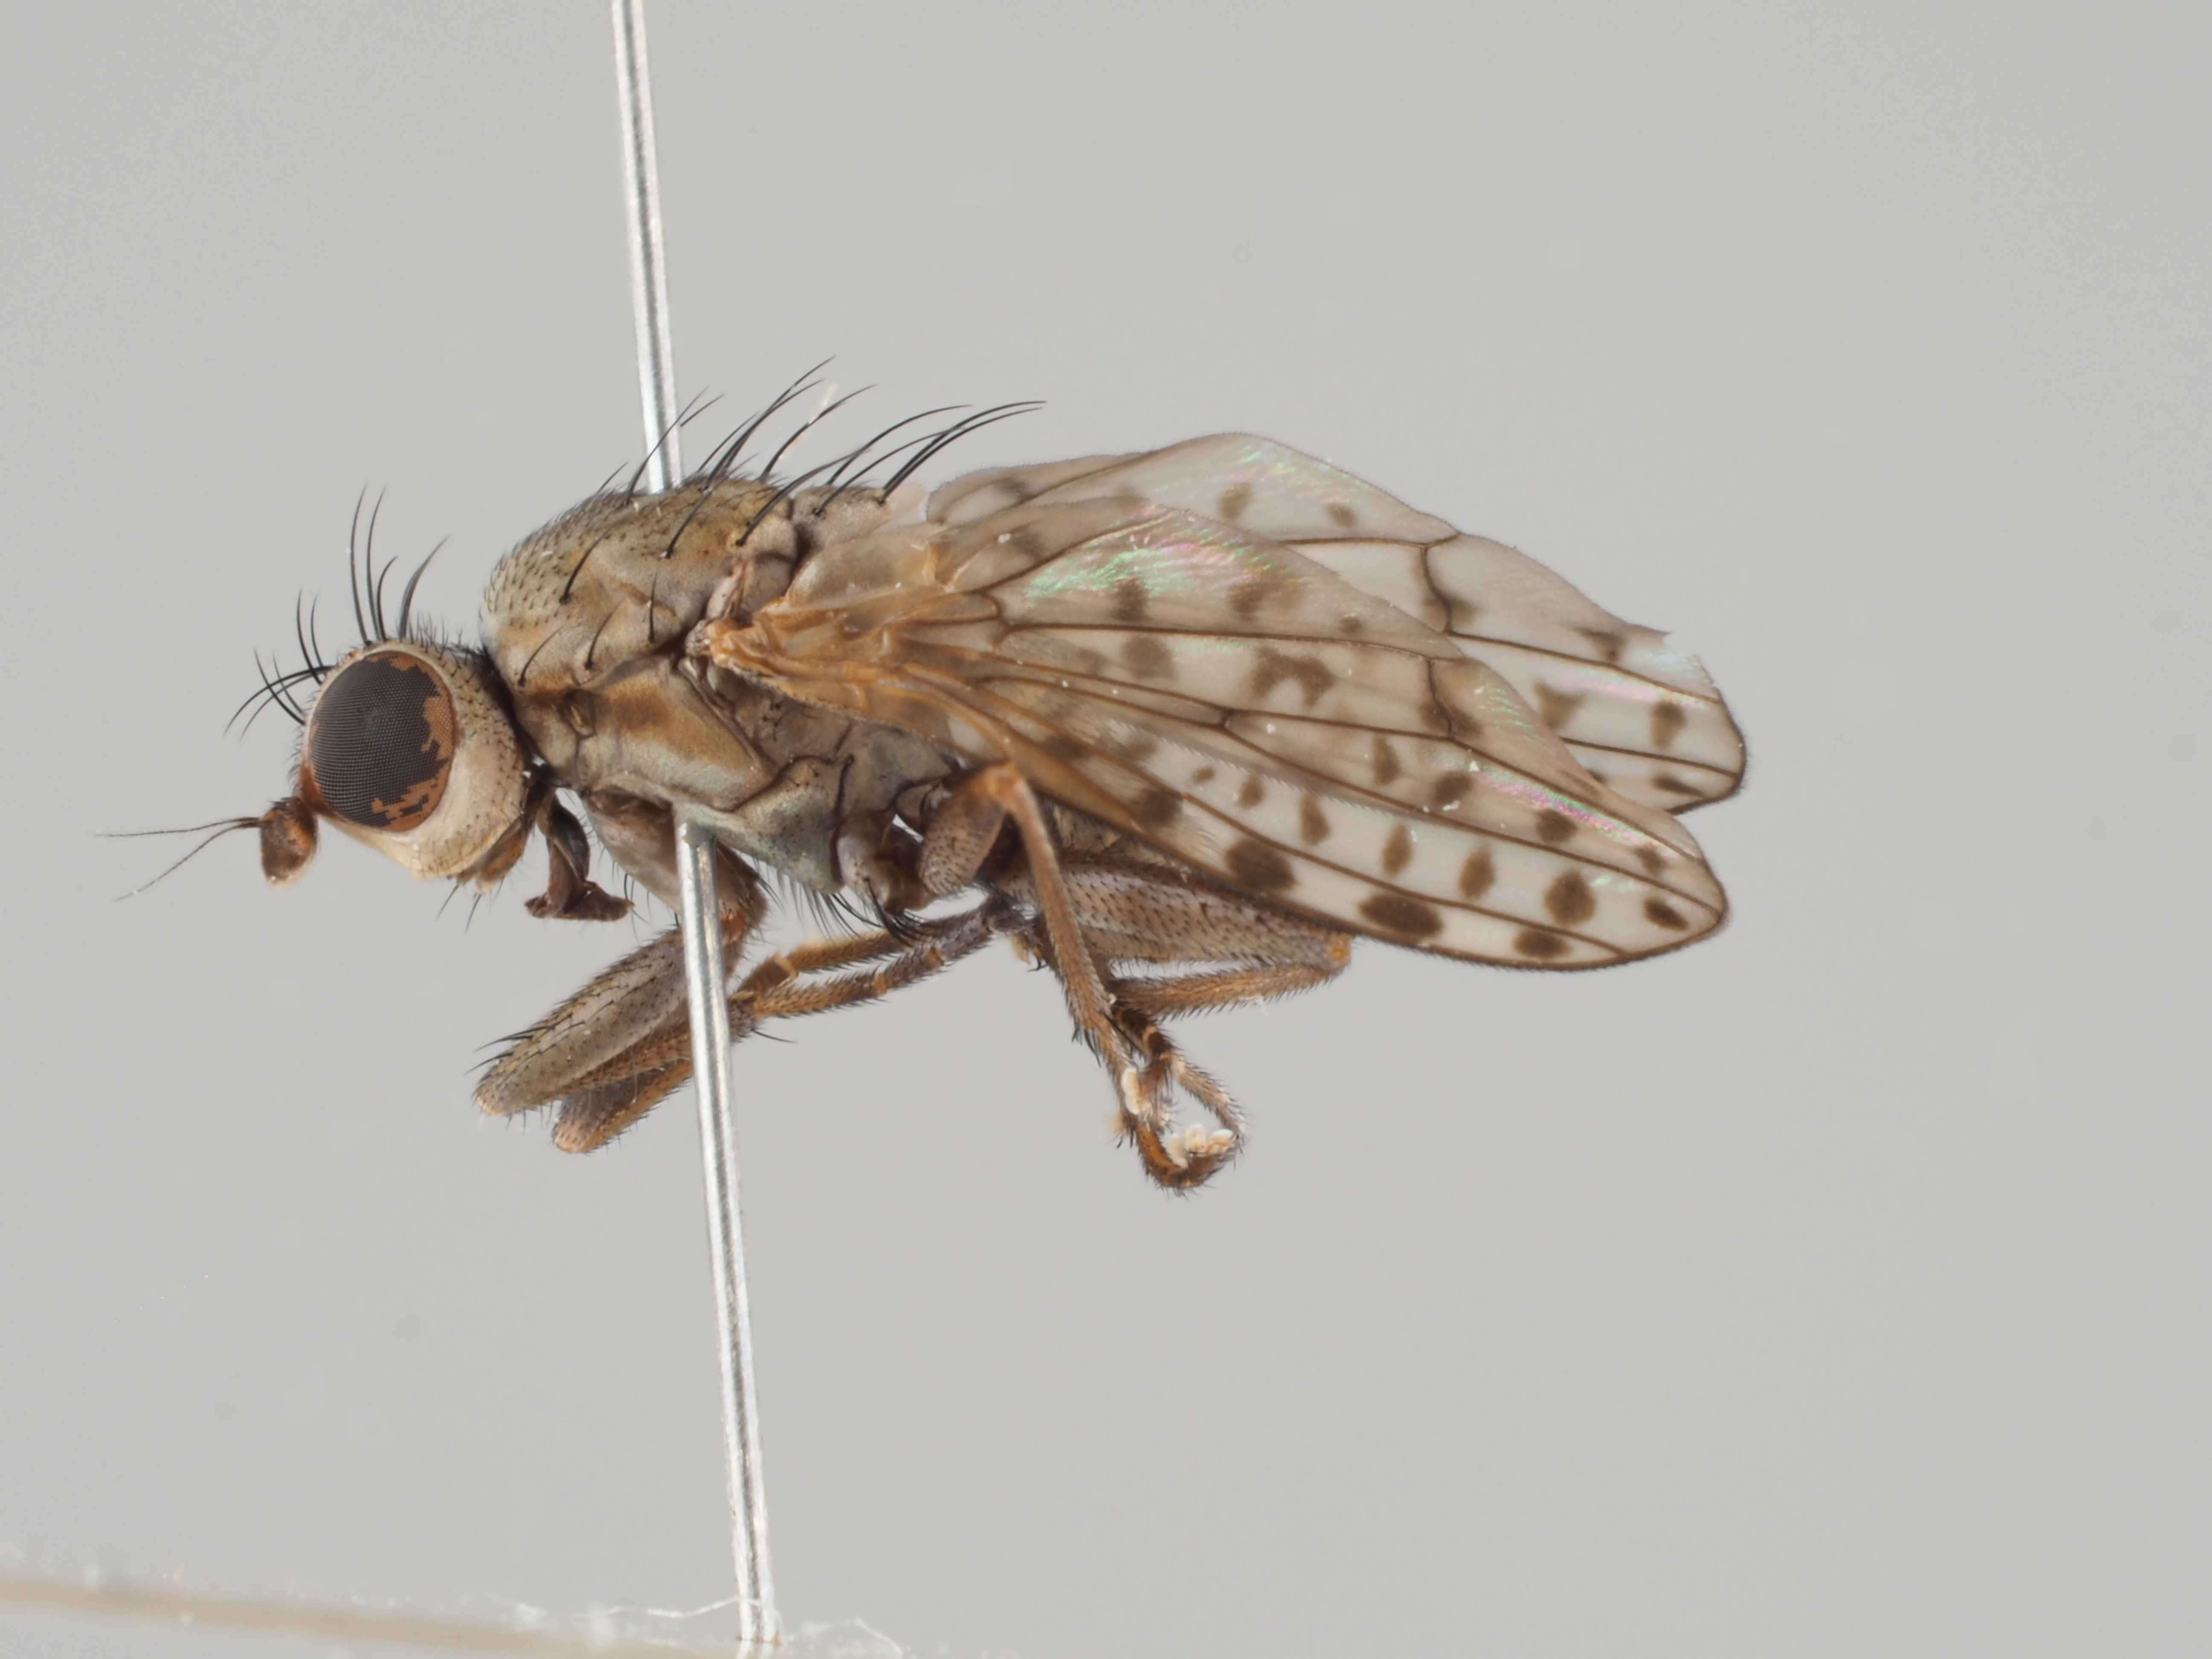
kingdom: Animalia
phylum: Arthropoda
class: Insecta
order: Diptera
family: Sciomyzidae
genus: Pherbellia
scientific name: Pherbellia schoenherri
